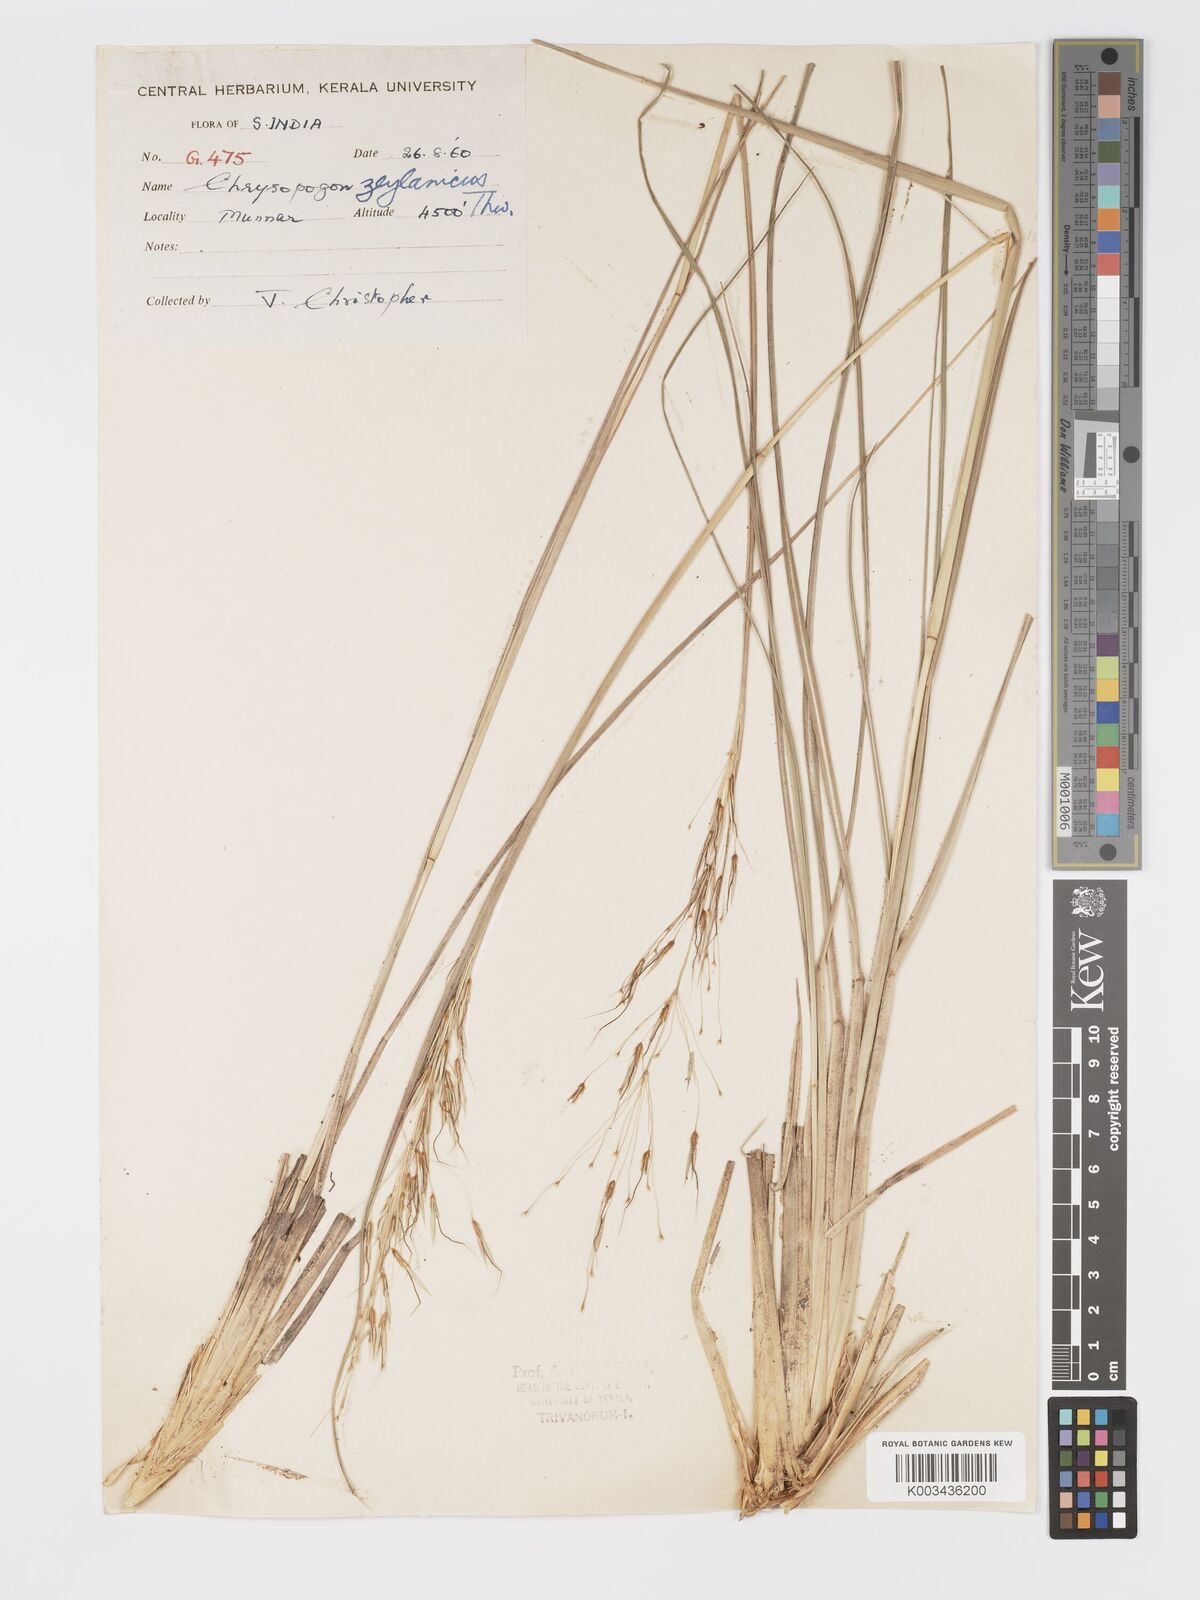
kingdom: Plantae
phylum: Tracheophyta
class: Liliopsida
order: Poales
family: Poaceae
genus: Chrysopogon
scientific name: Chrysopogon nodulibarbis
